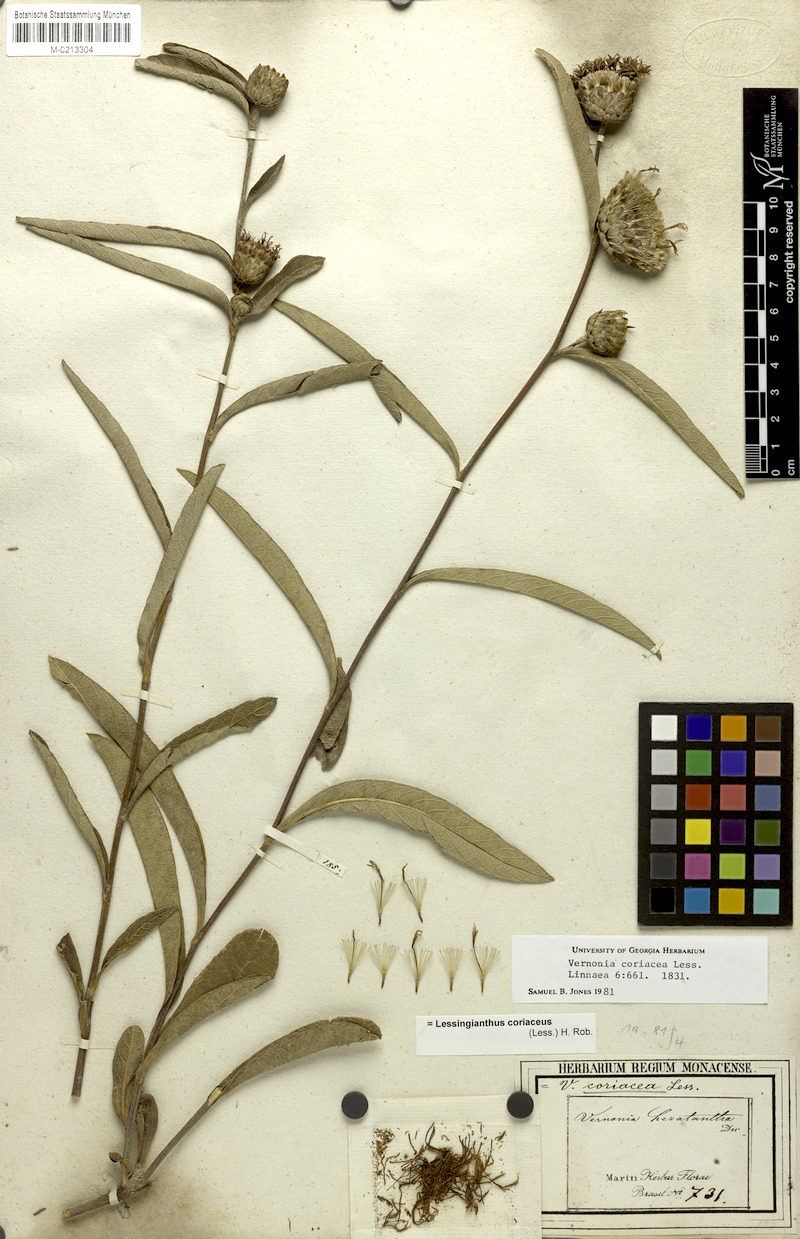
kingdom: Plantae
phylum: Tracheophyta
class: Magnoliopsida
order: Asterales
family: Asteraceae
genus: Lessingianthus
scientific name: Lessingianthus coriaceus
